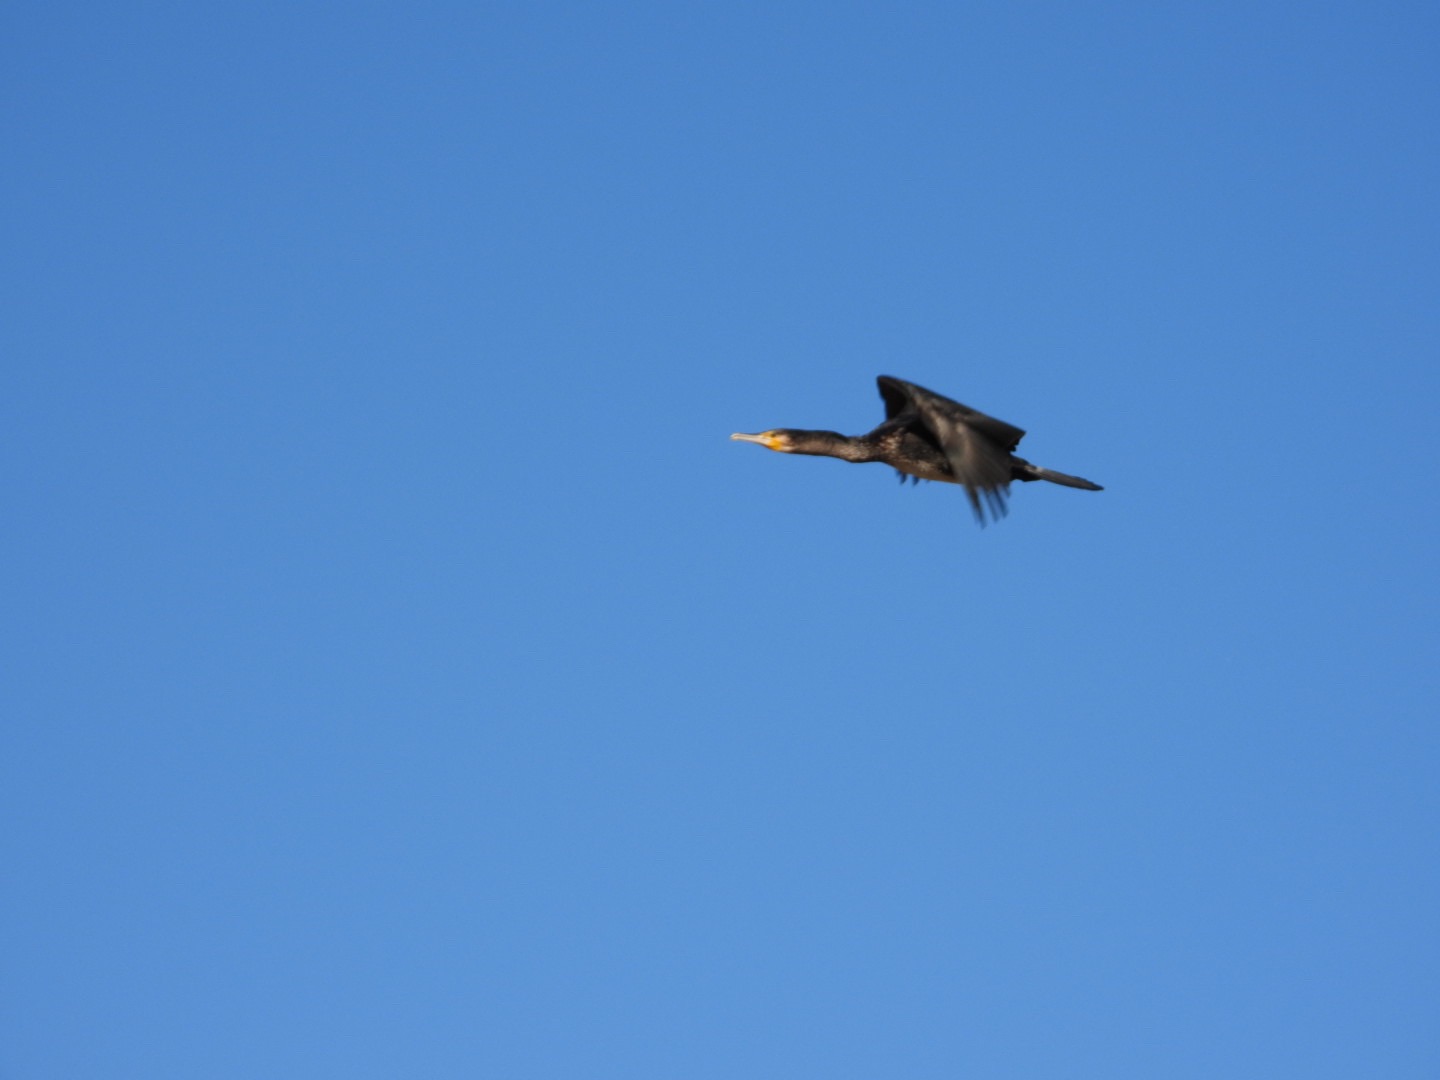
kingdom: Animalia
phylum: Chordata
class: Aves
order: Suliformes
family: Phalacrocoracidae
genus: Phalacrocorax
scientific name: Phalacrocorax carbo
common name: Skarv
